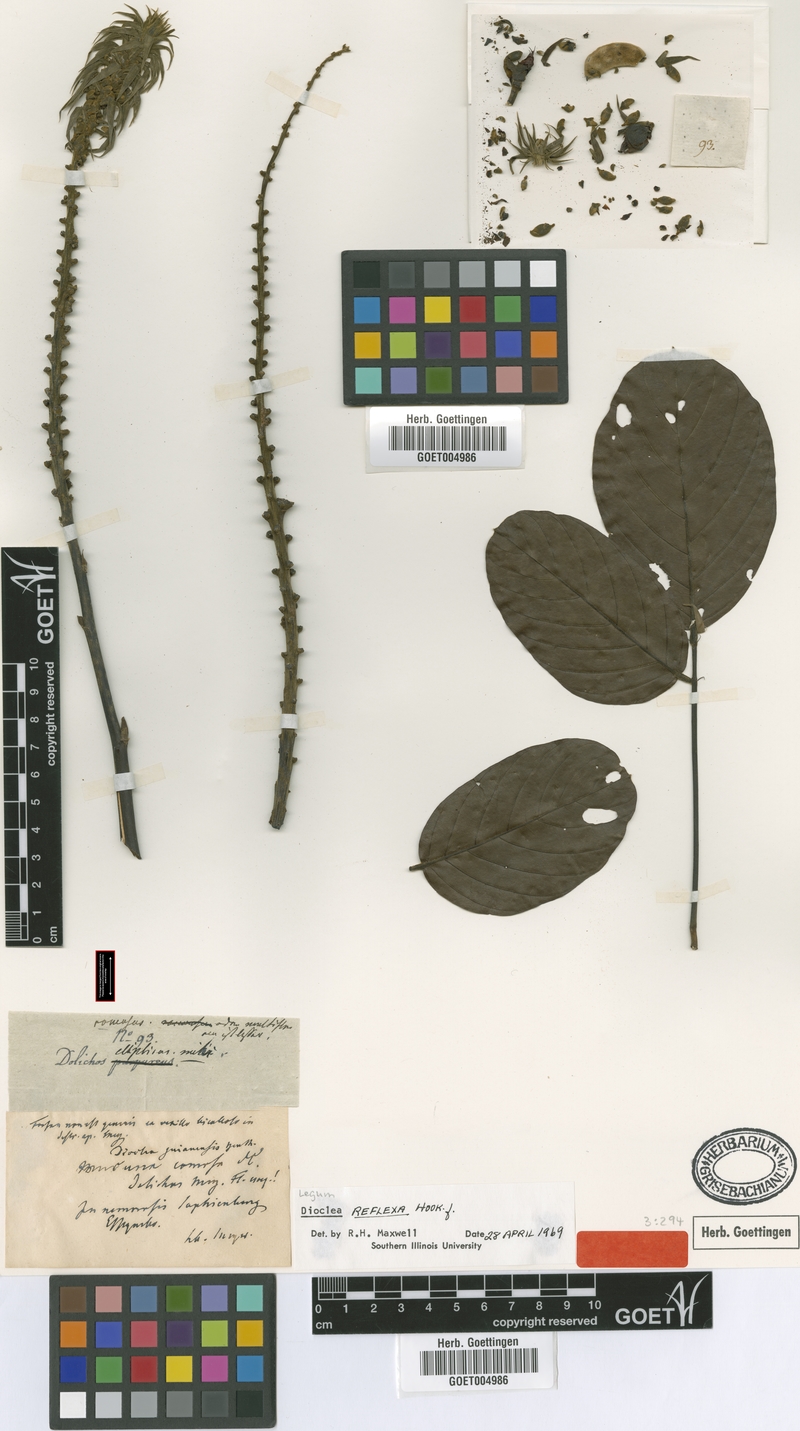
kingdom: Plantae
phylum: Tracheophyta
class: Magnoliopsida
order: Fabales
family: Fabaceae
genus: Macropsychanthus
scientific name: Macropsychanthus comosus
